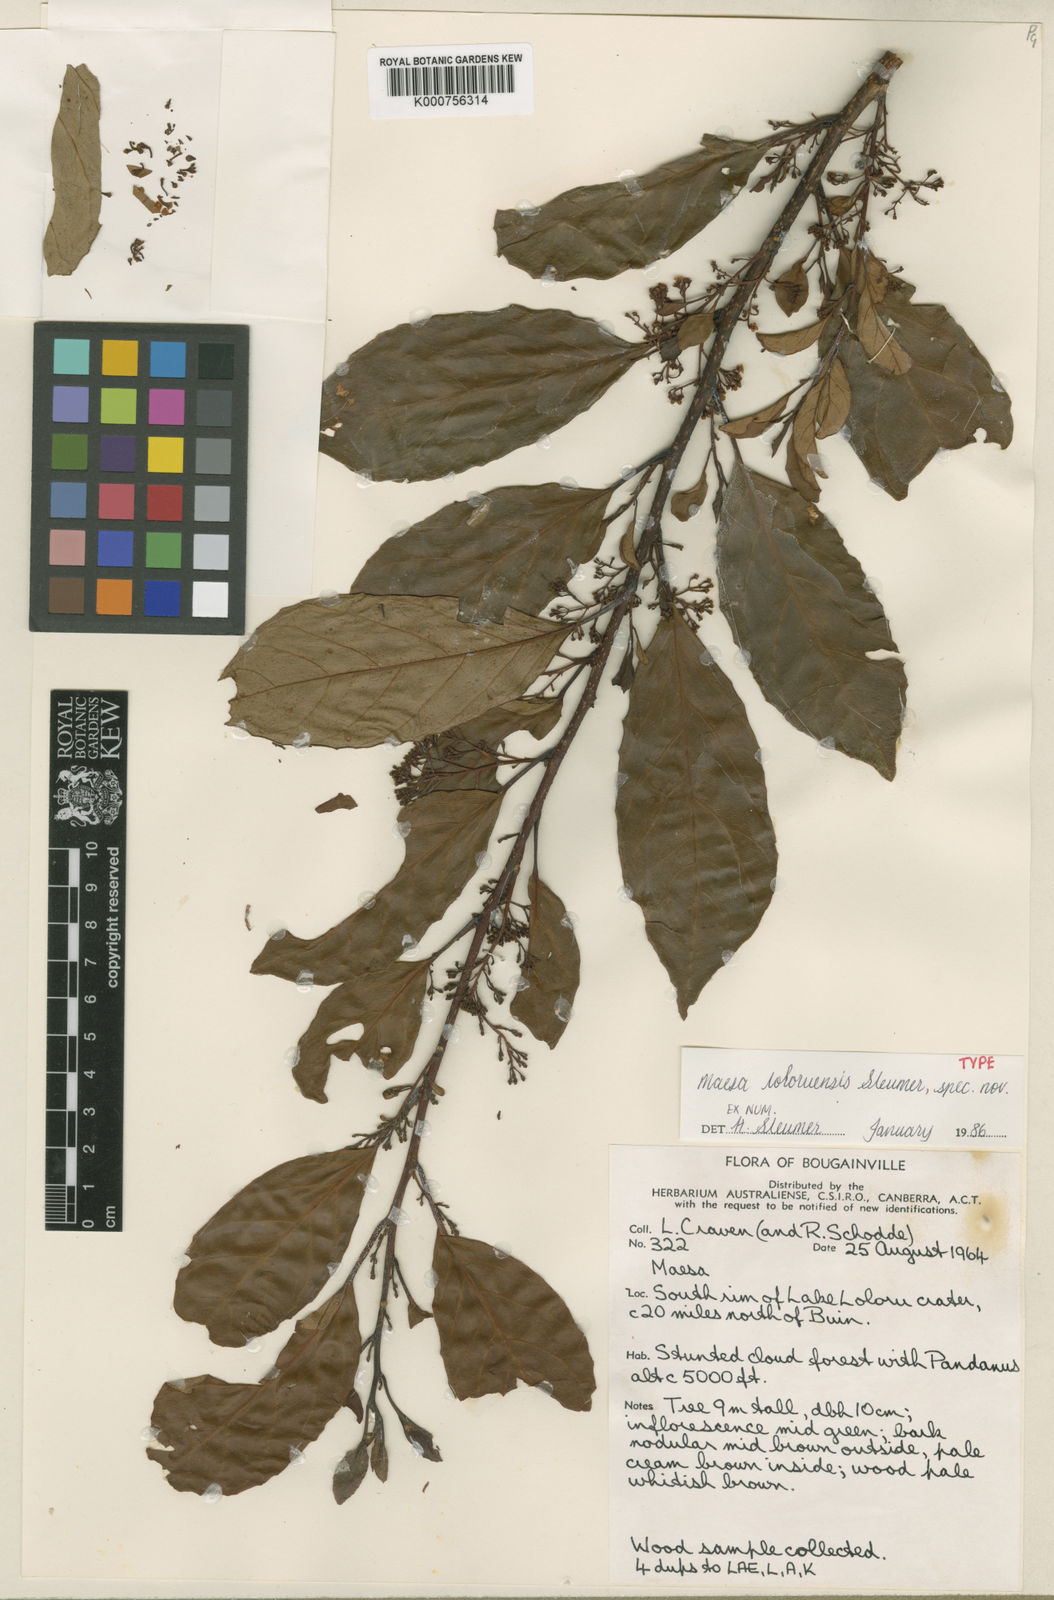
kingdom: Plantae
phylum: Tracheophyta
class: Magnoliopsida
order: Ericales
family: Primulaceae
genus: Maesa
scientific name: Maesa loloruensis
